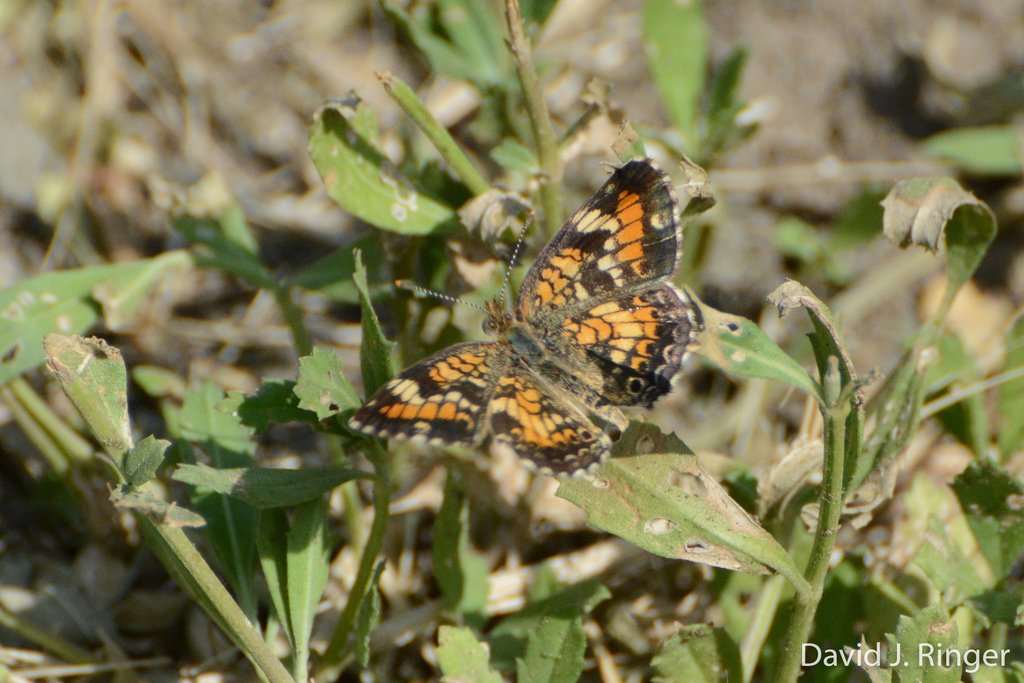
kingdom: Animalia
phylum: Arthropoda
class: Insecta
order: Lepidoptera
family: Nymphalidae
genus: Phyciodes
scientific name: Phyciodes phaon
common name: Phaon Crescent
